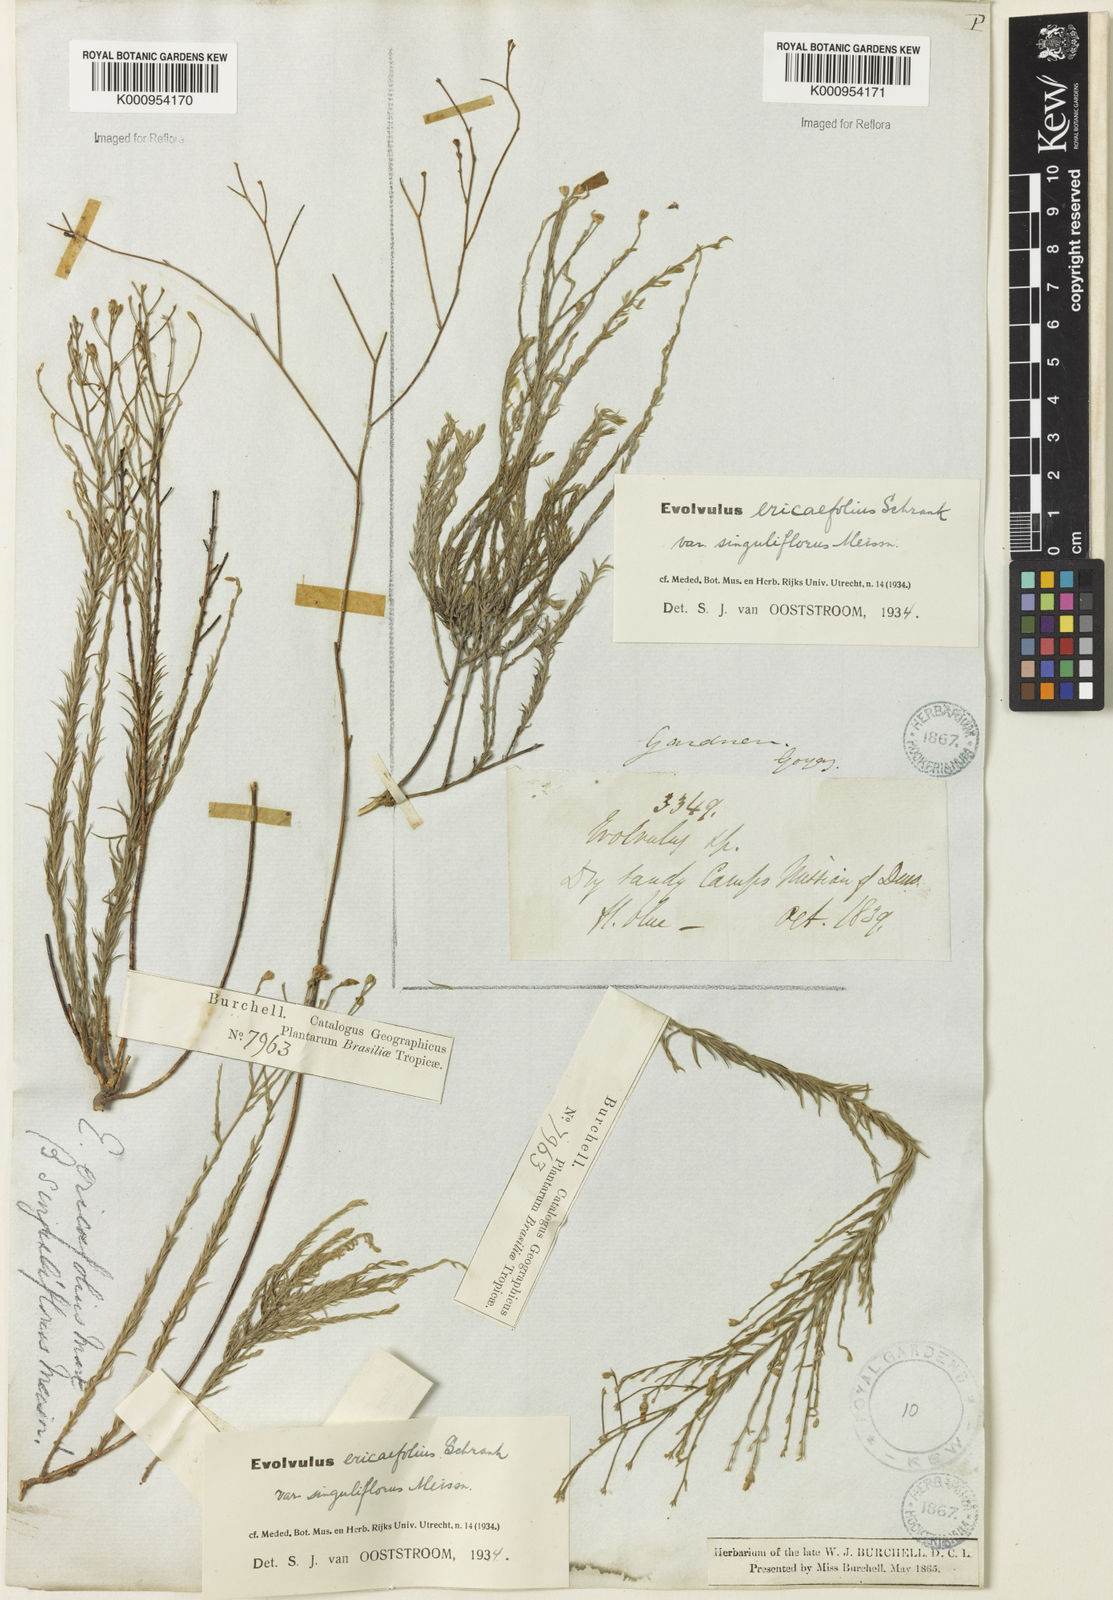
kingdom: Plantae
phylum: Tracheophyta
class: Magnoliopsida
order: Solanales
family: Convolvulaceae
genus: Evolvulus
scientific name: Evolvulus ericifolius
